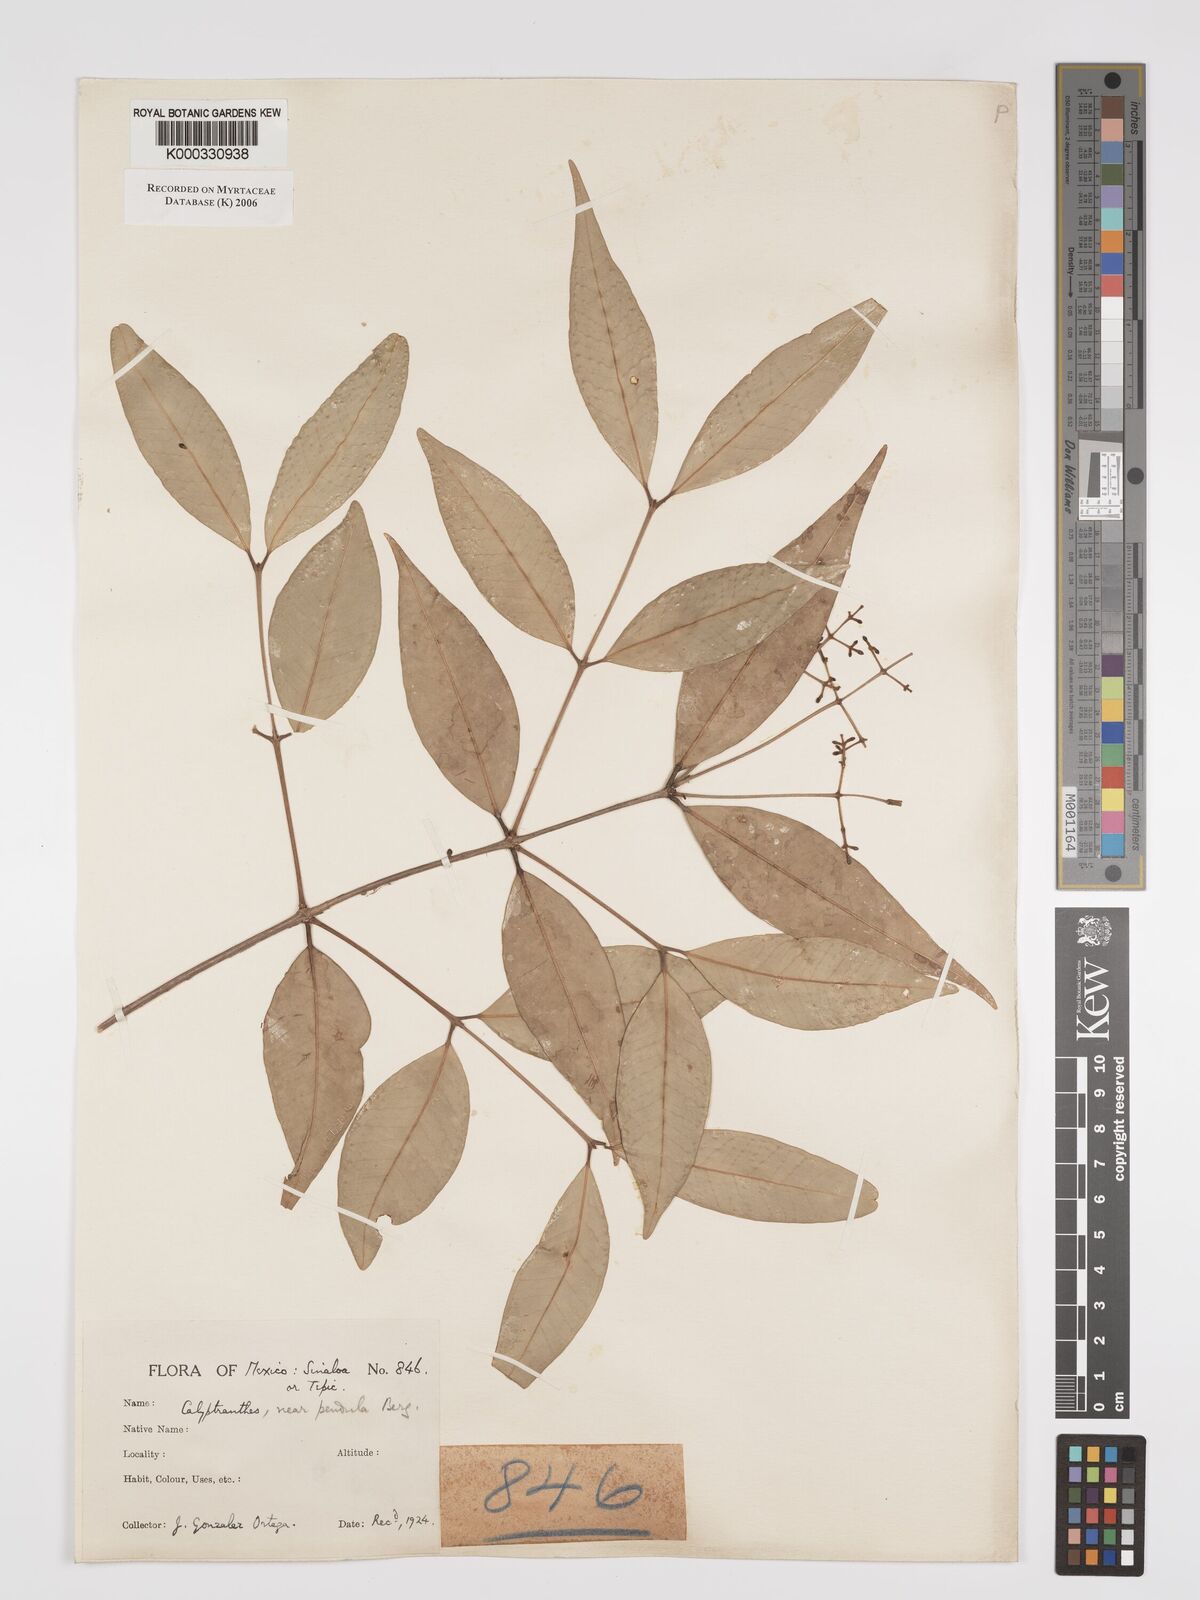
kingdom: Plantae
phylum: Tracheophyta
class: Magnoliopsida
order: Myrtales
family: Myrtaceae
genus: Myrcia
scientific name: Myrcia pendens
